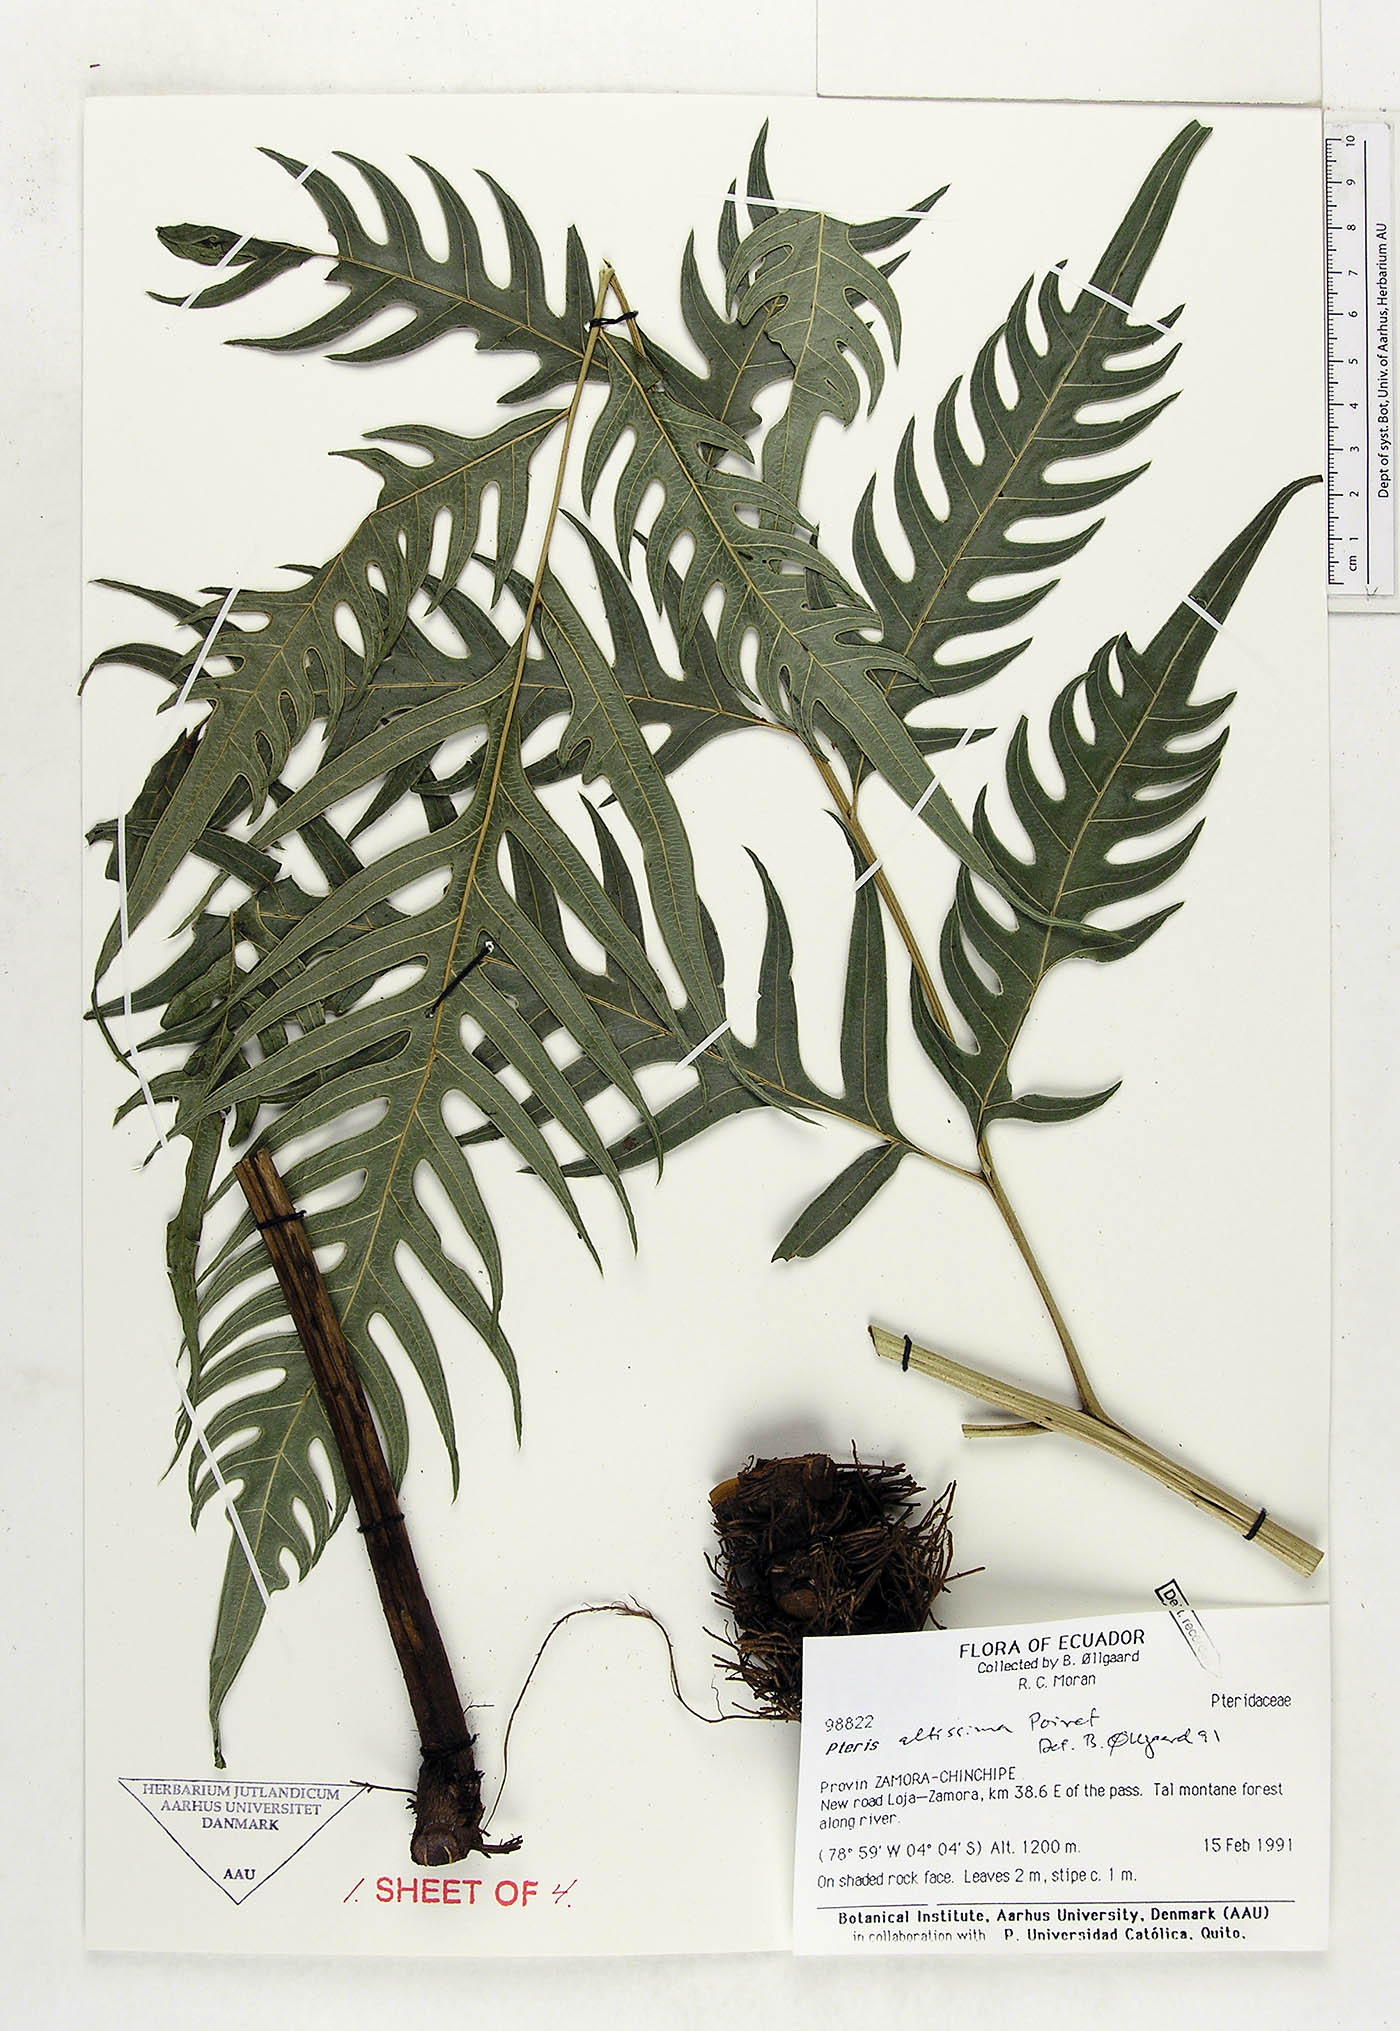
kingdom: Plantae
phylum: Tracheophyta
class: Polypodiopsida
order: Polypodiales
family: Pteridaceae
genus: Pteris
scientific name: Pteris altissima
